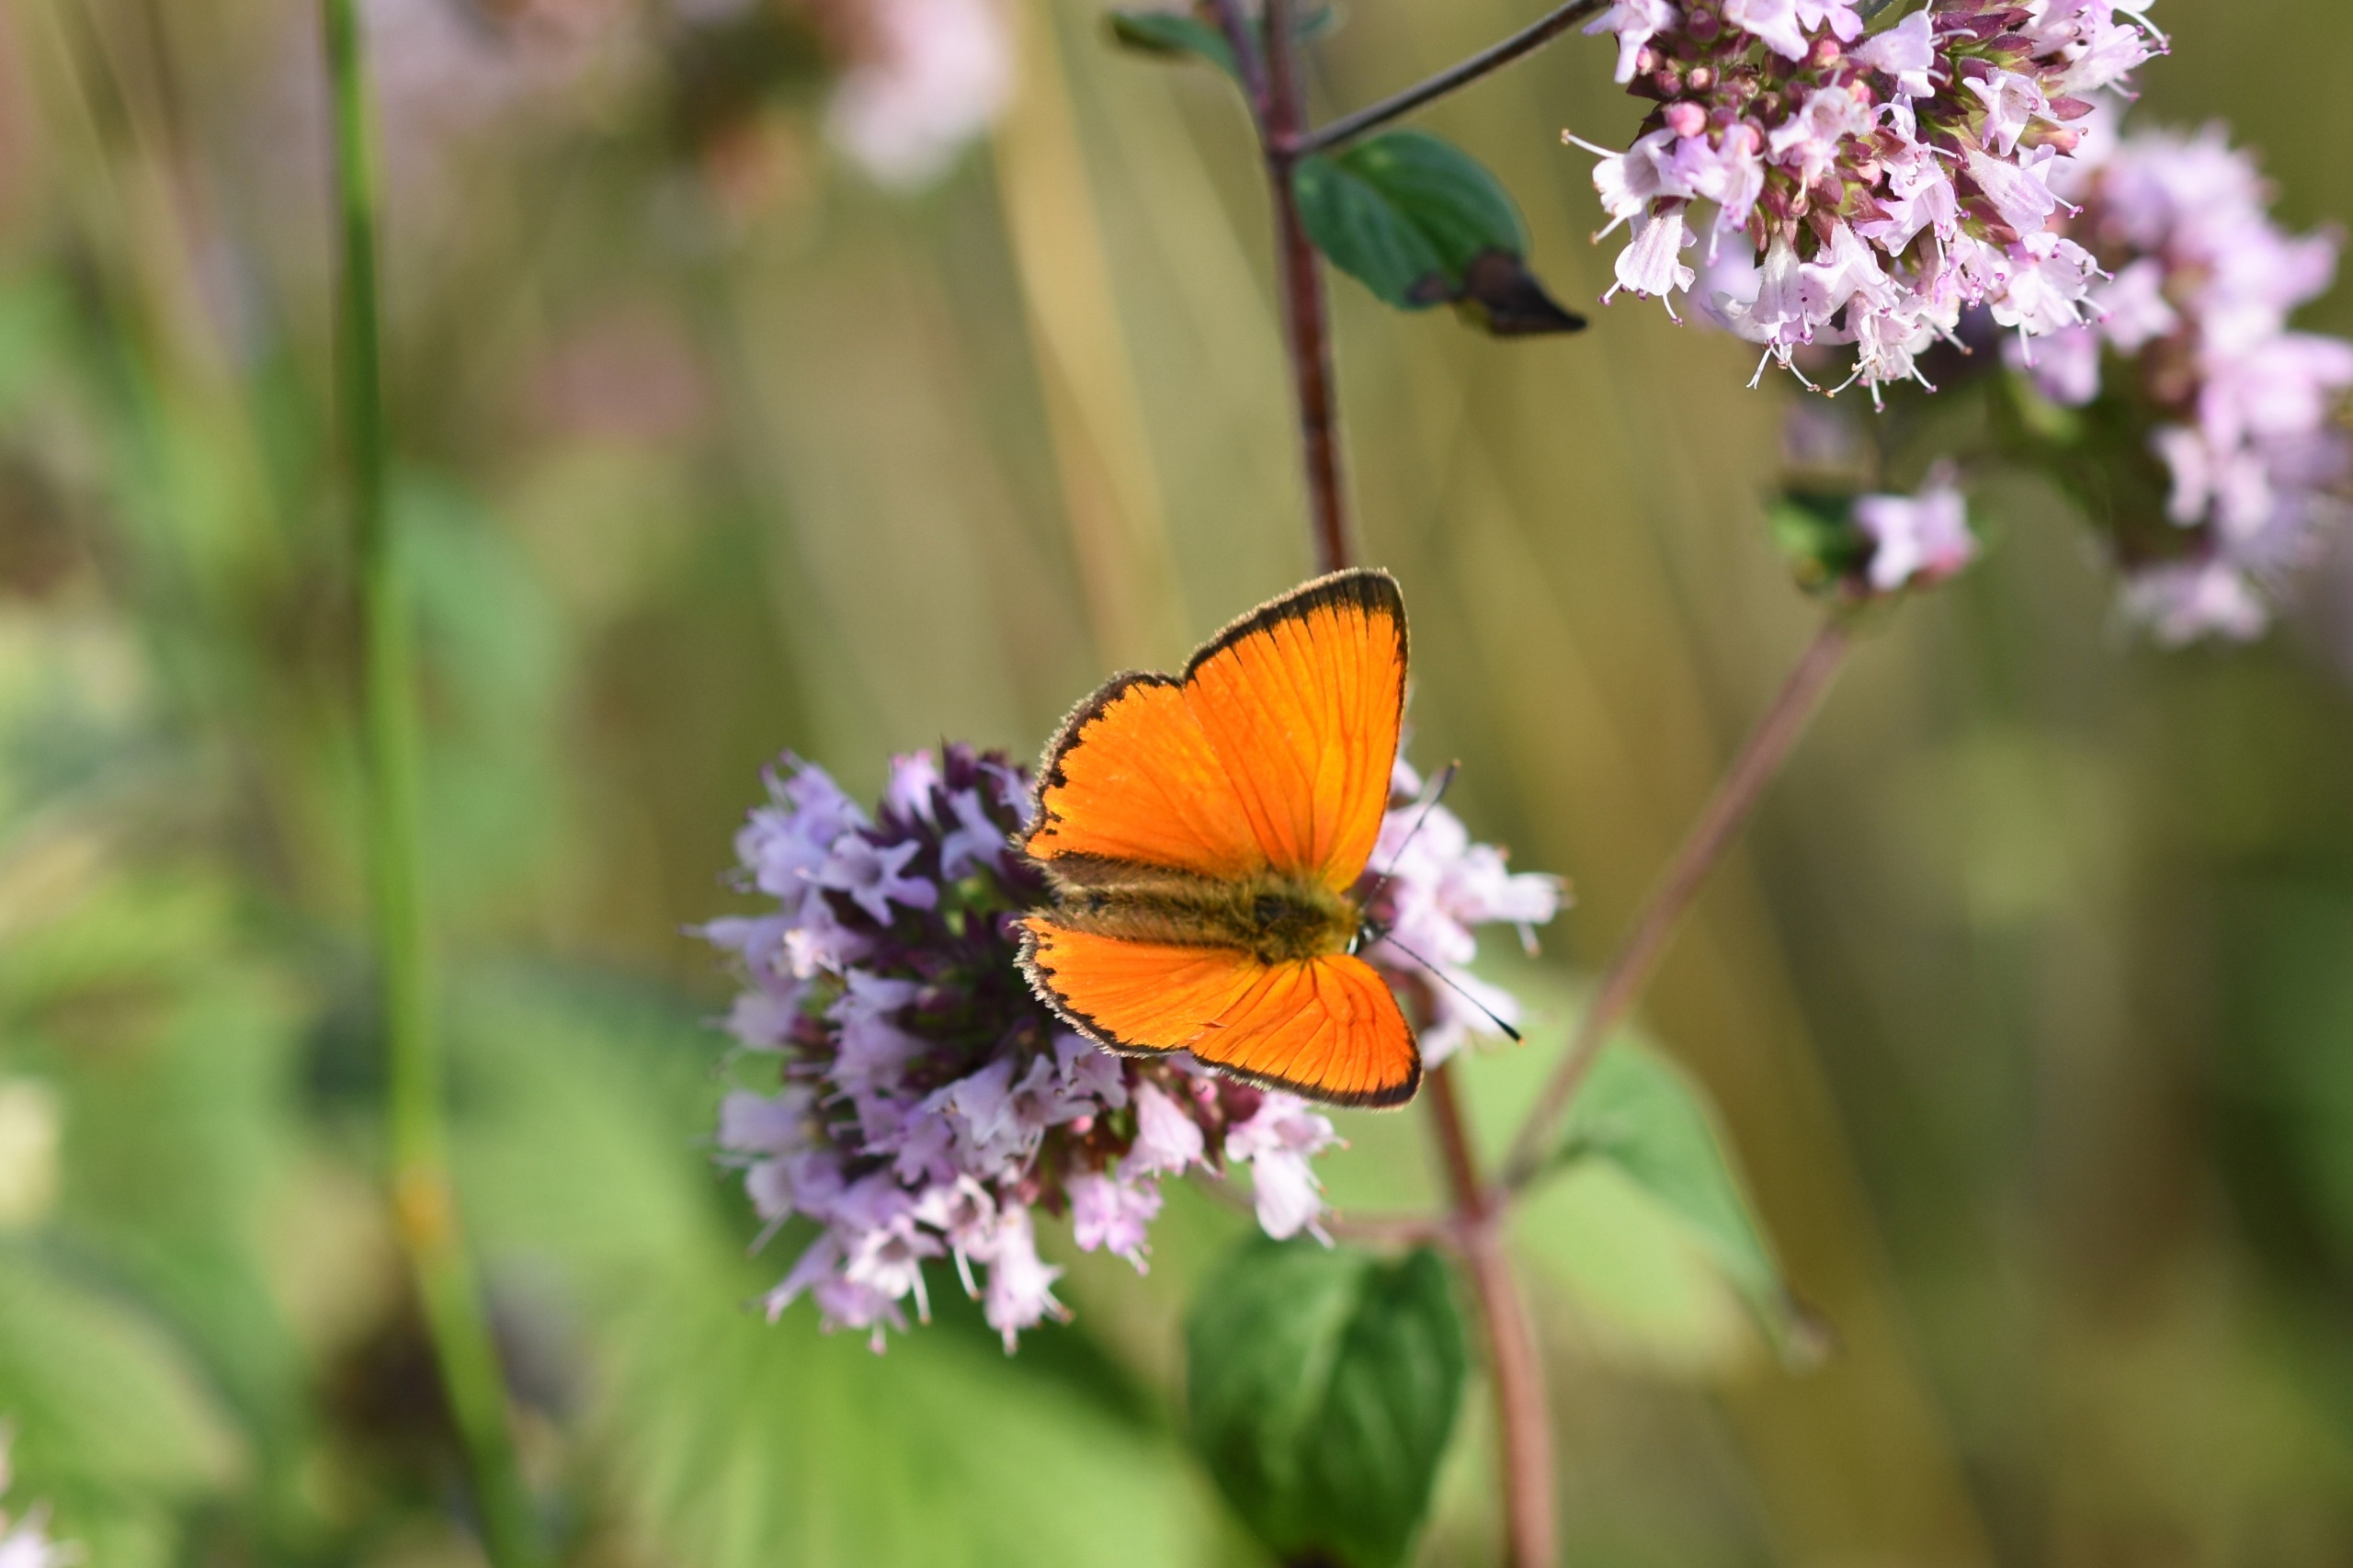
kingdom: Animalia
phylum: Arthropoda
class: Insecta
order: Lepidoptera
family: Lycaenidae
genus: Lycaena
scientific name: Lycaena virgaureae
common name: Dukatsommerfugl
